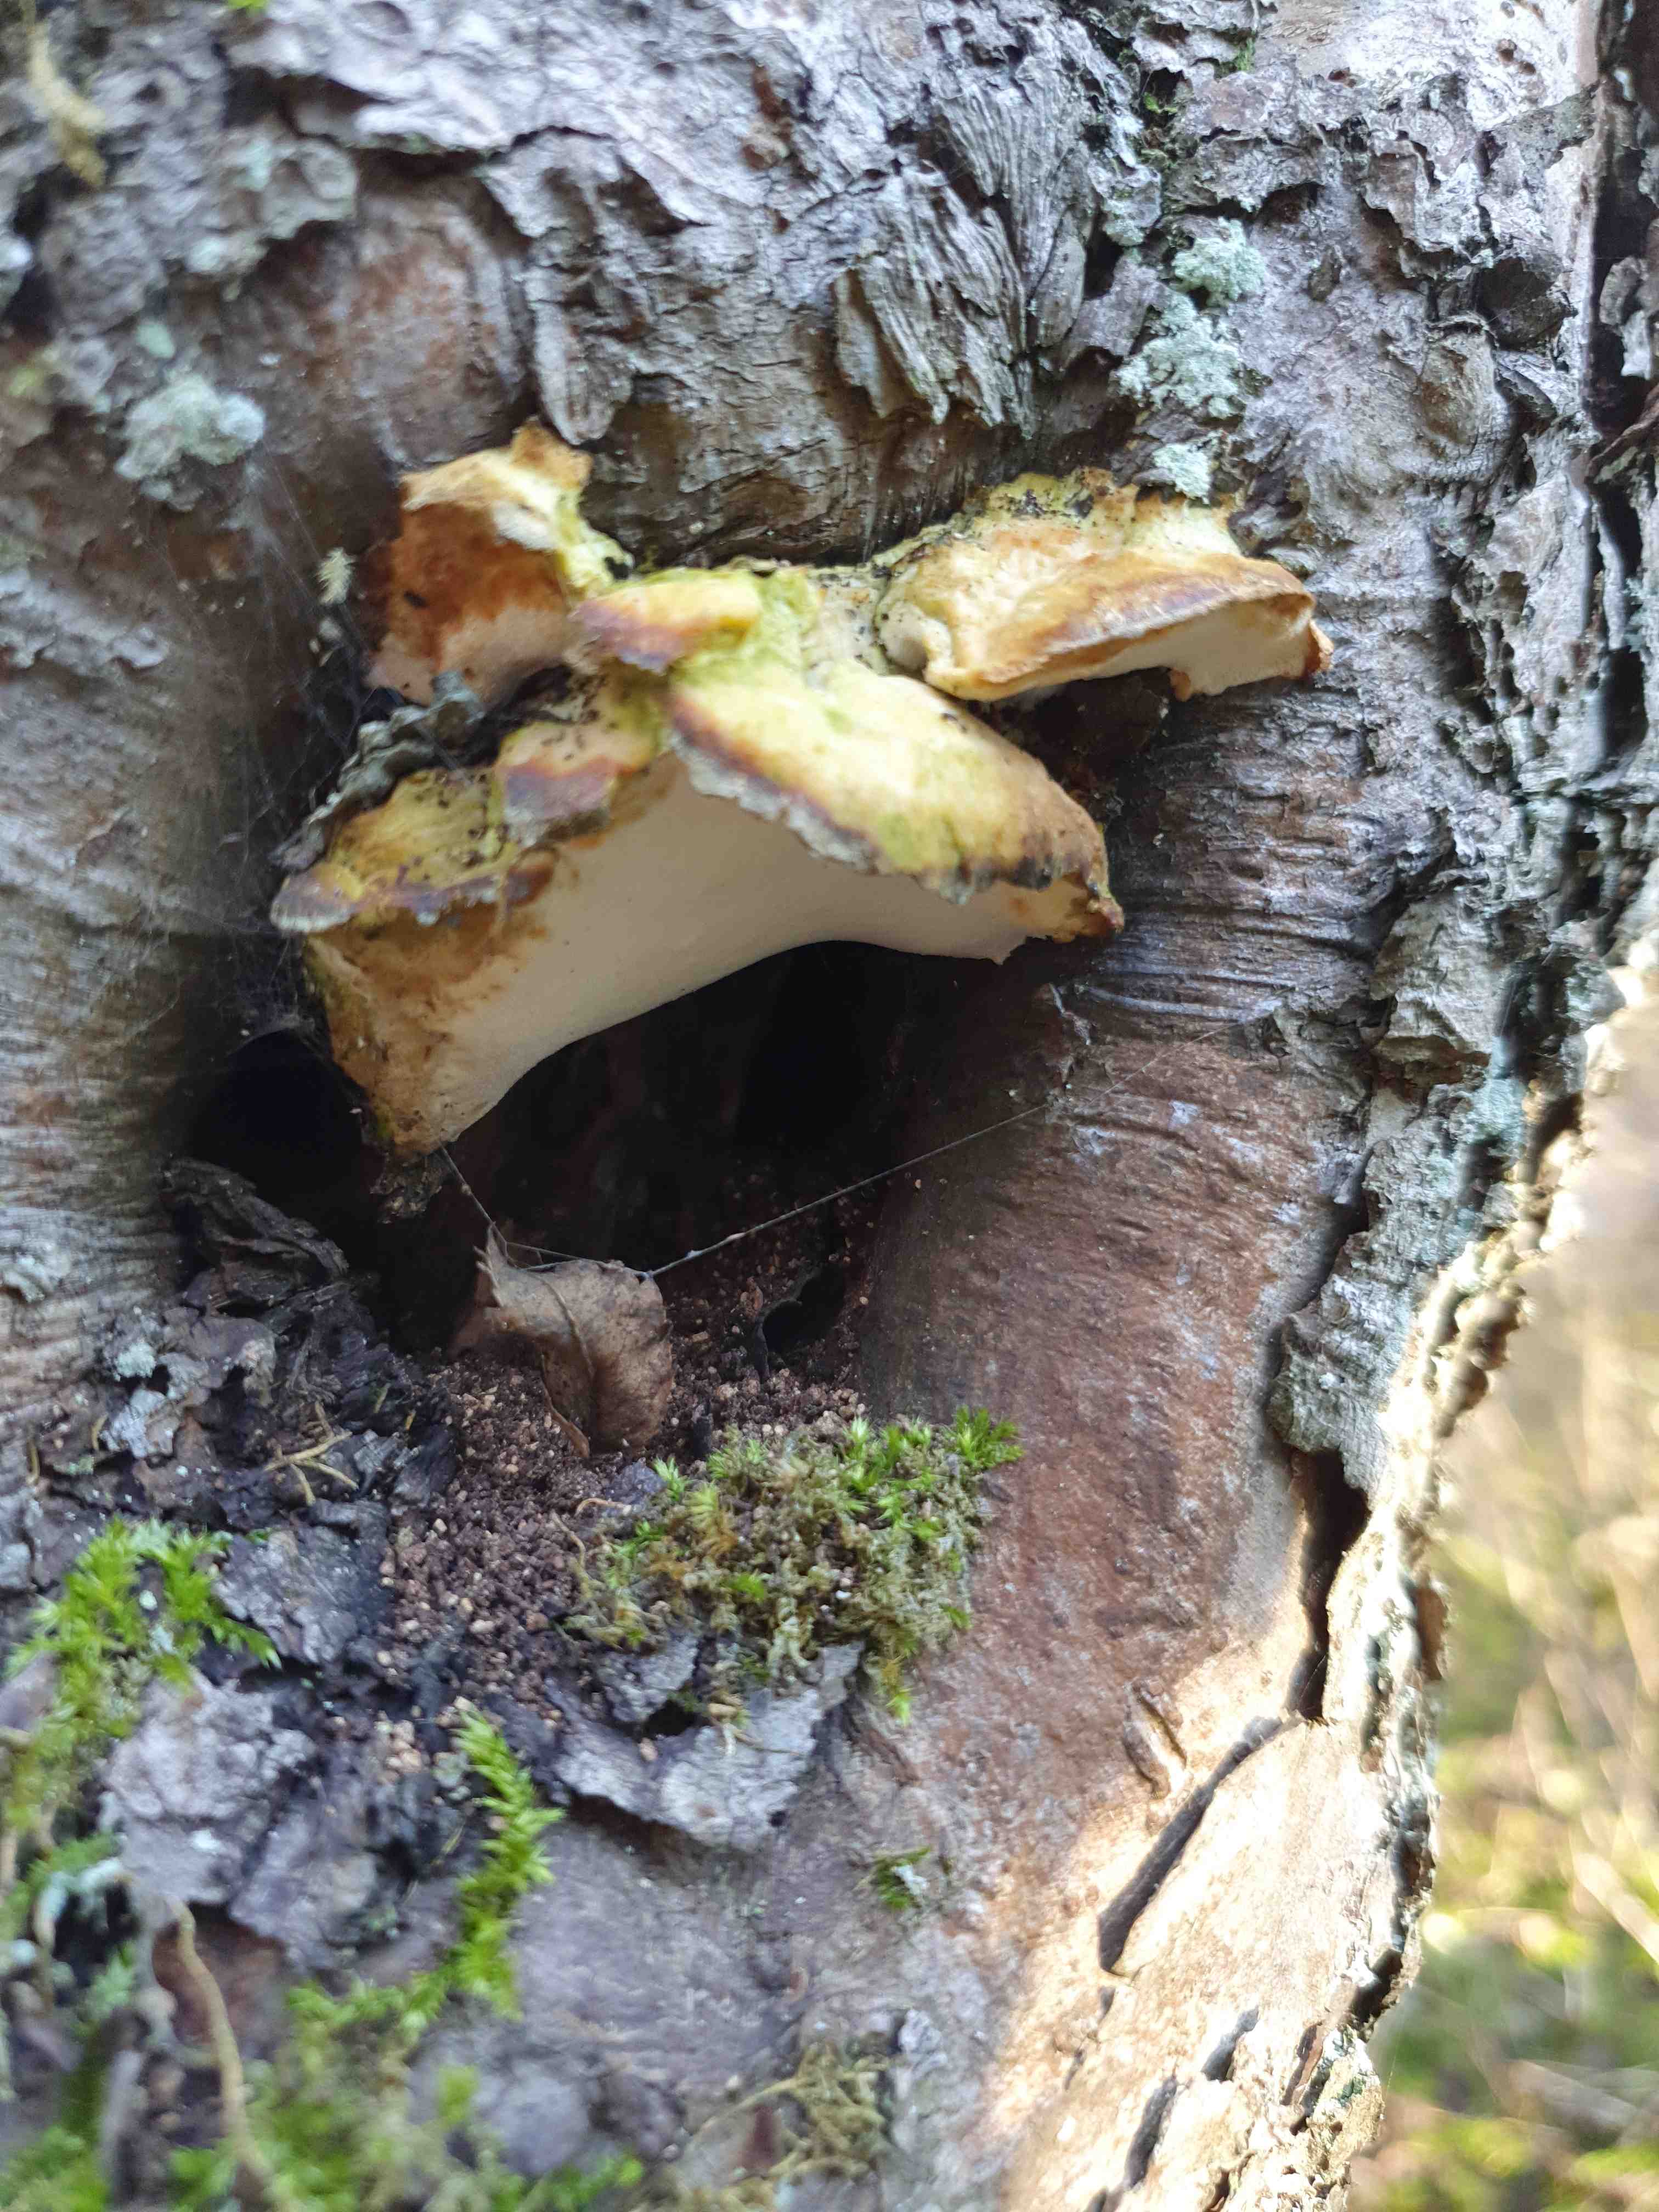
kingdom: Fungi
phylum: Basidiomycota
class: Agaricomycetes
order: Hymenochaetales
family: Oxyporaceae
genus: Oxyporus
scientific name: Oxyporus populinus
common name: sammenvokset trylleporesvamp
